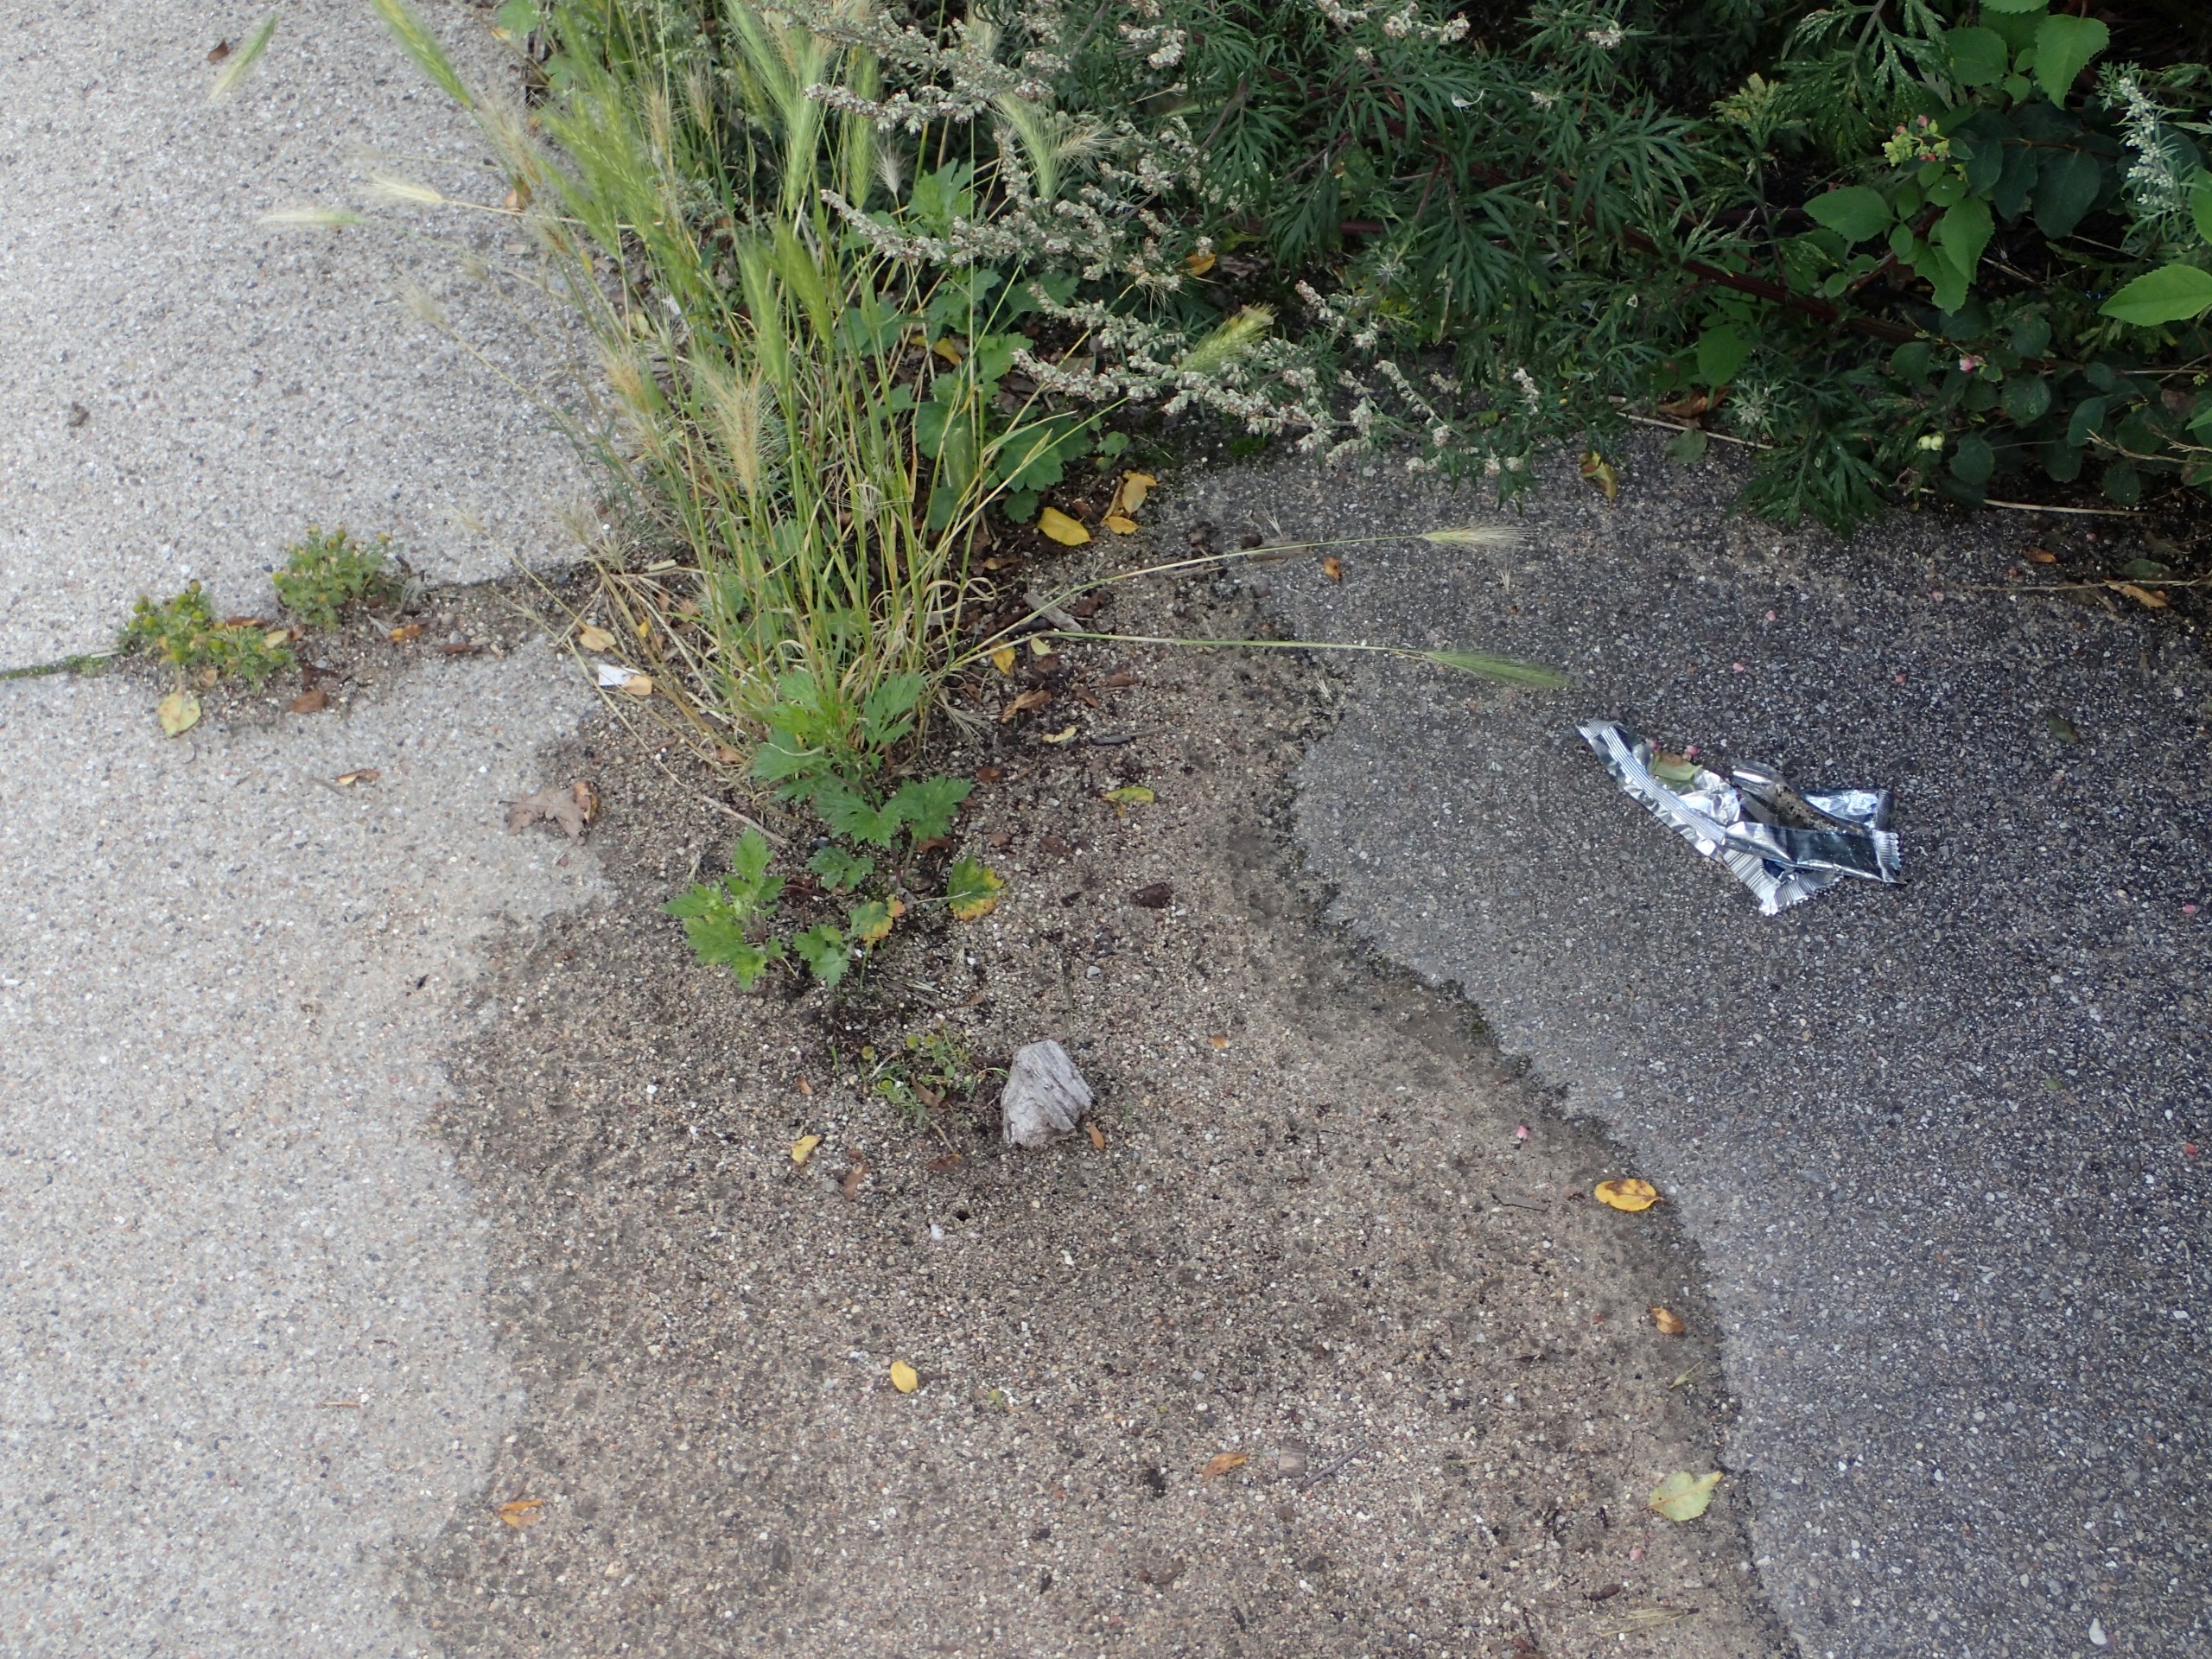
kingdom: Plantae
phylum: Tracheophyta
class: Liliopsida
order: Poales
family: Poaceae
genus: Hordeum
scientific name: Hordeum murinum
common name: Gold byg
